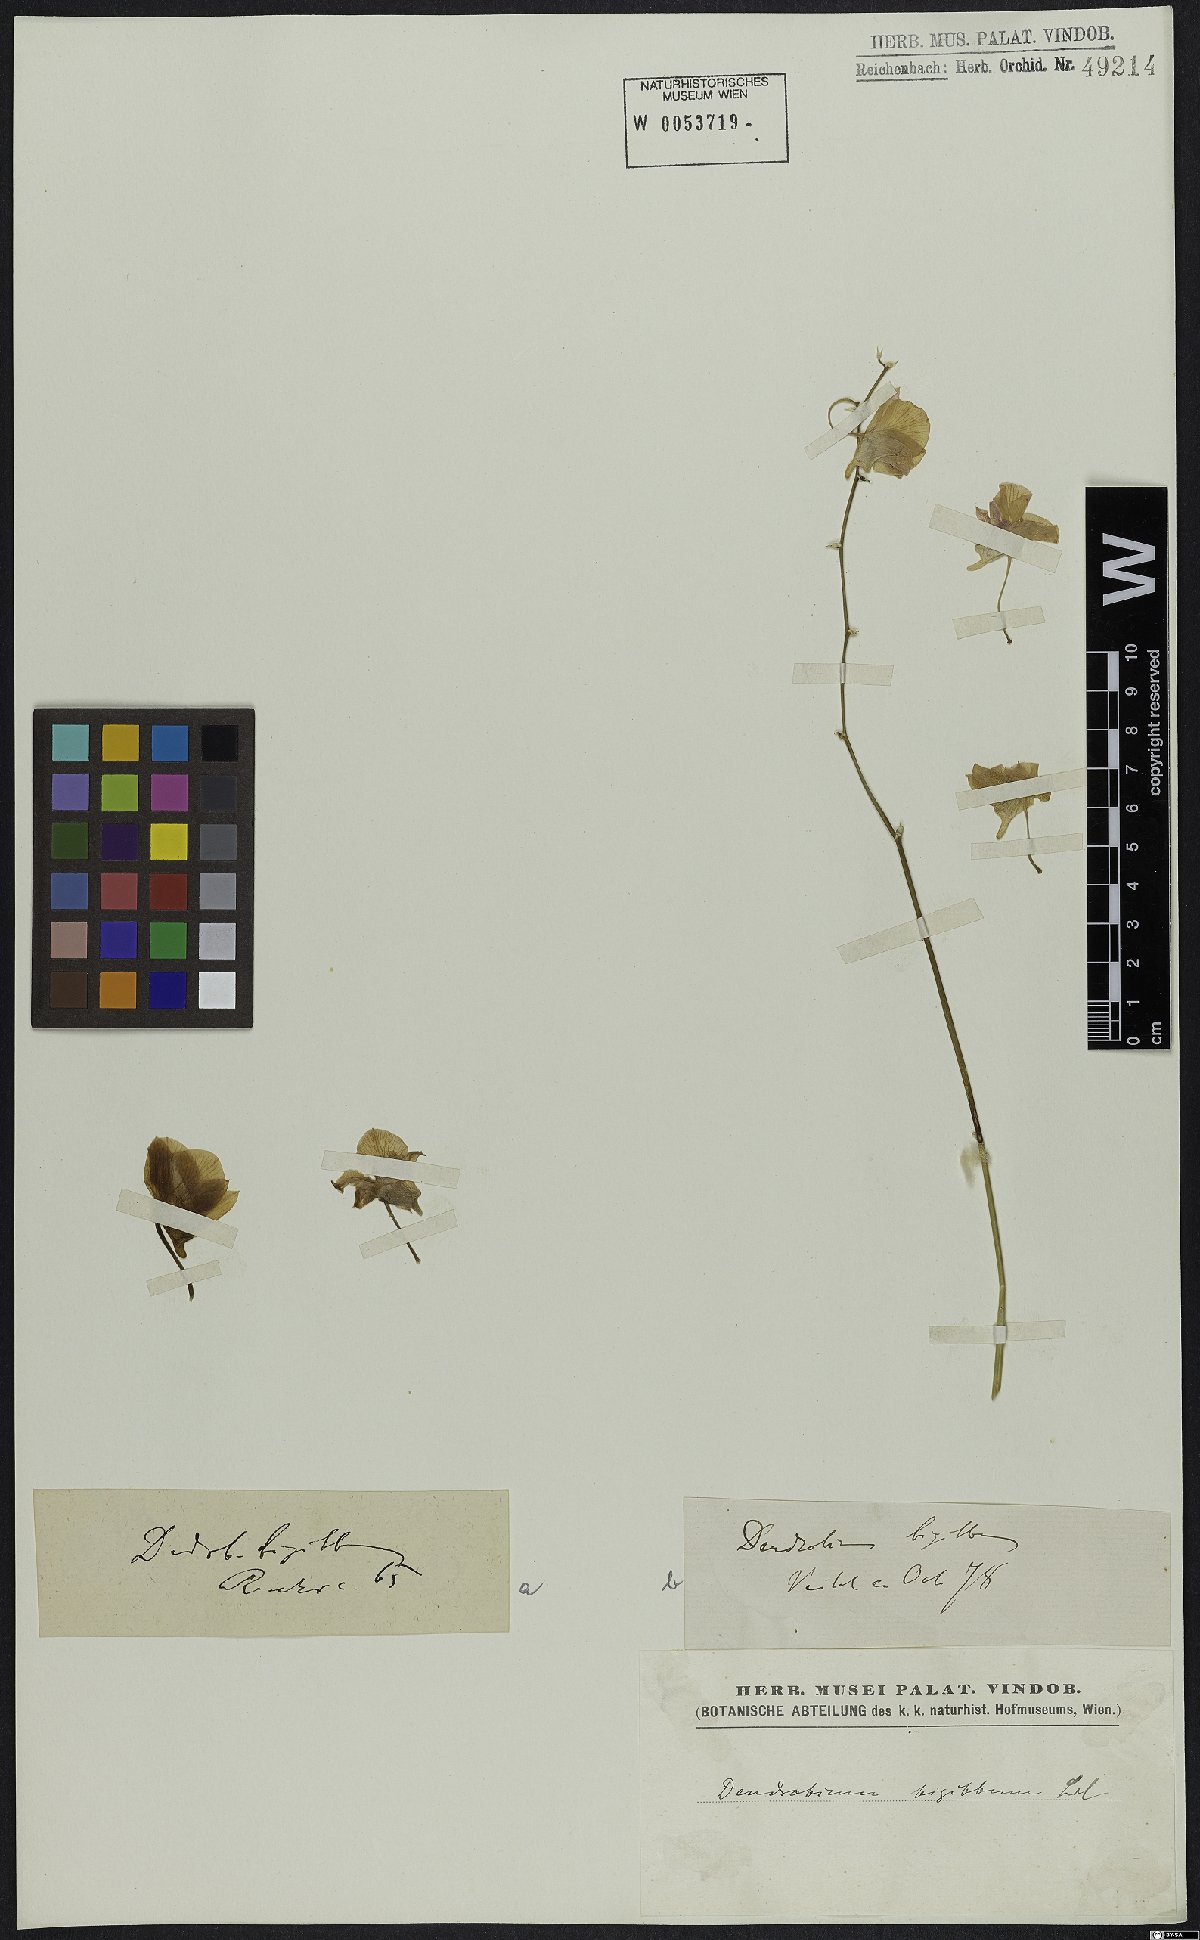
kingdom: Plantae
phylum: Tracheophyta
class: Liliopsida
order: Asparagales
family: Orchidaceae
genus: Dendrobium
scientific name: Dendrobium bigibbum
